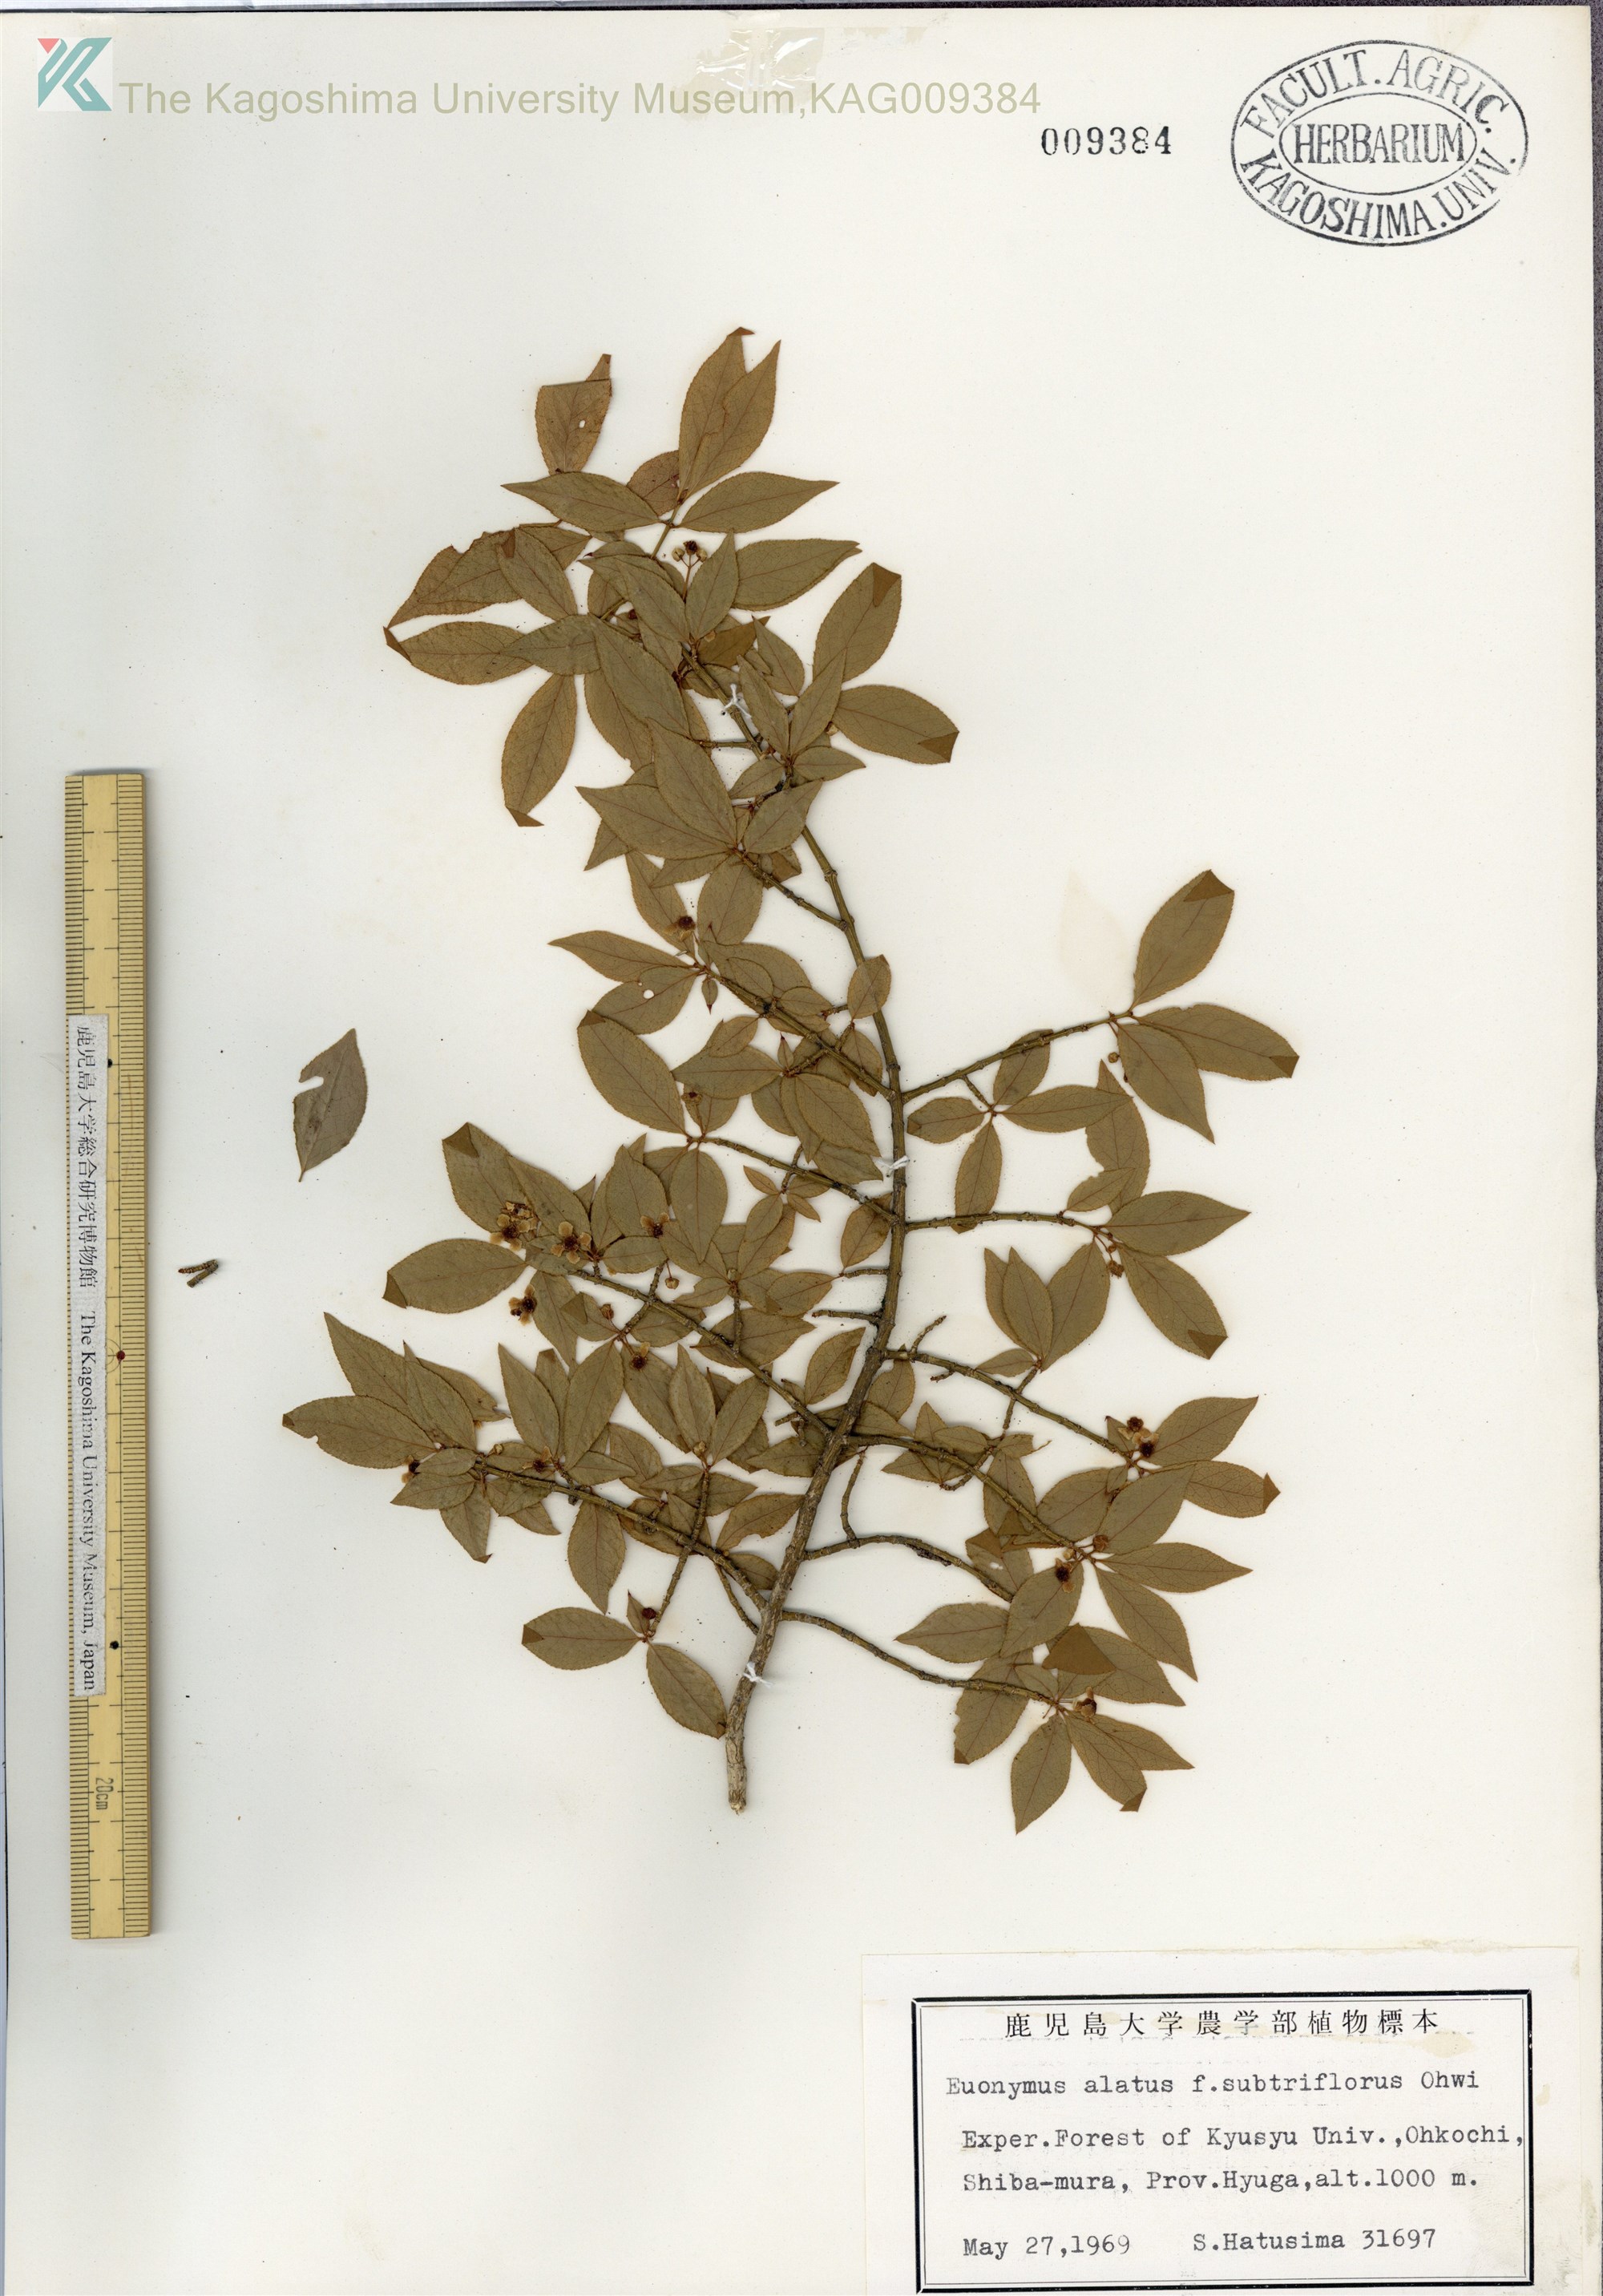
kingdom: Plantae
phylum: Tracheophyta
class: Magnoliopsida
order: Celastrales
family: Celastraceae
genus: Euonymus
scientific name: Euonymus alatus
